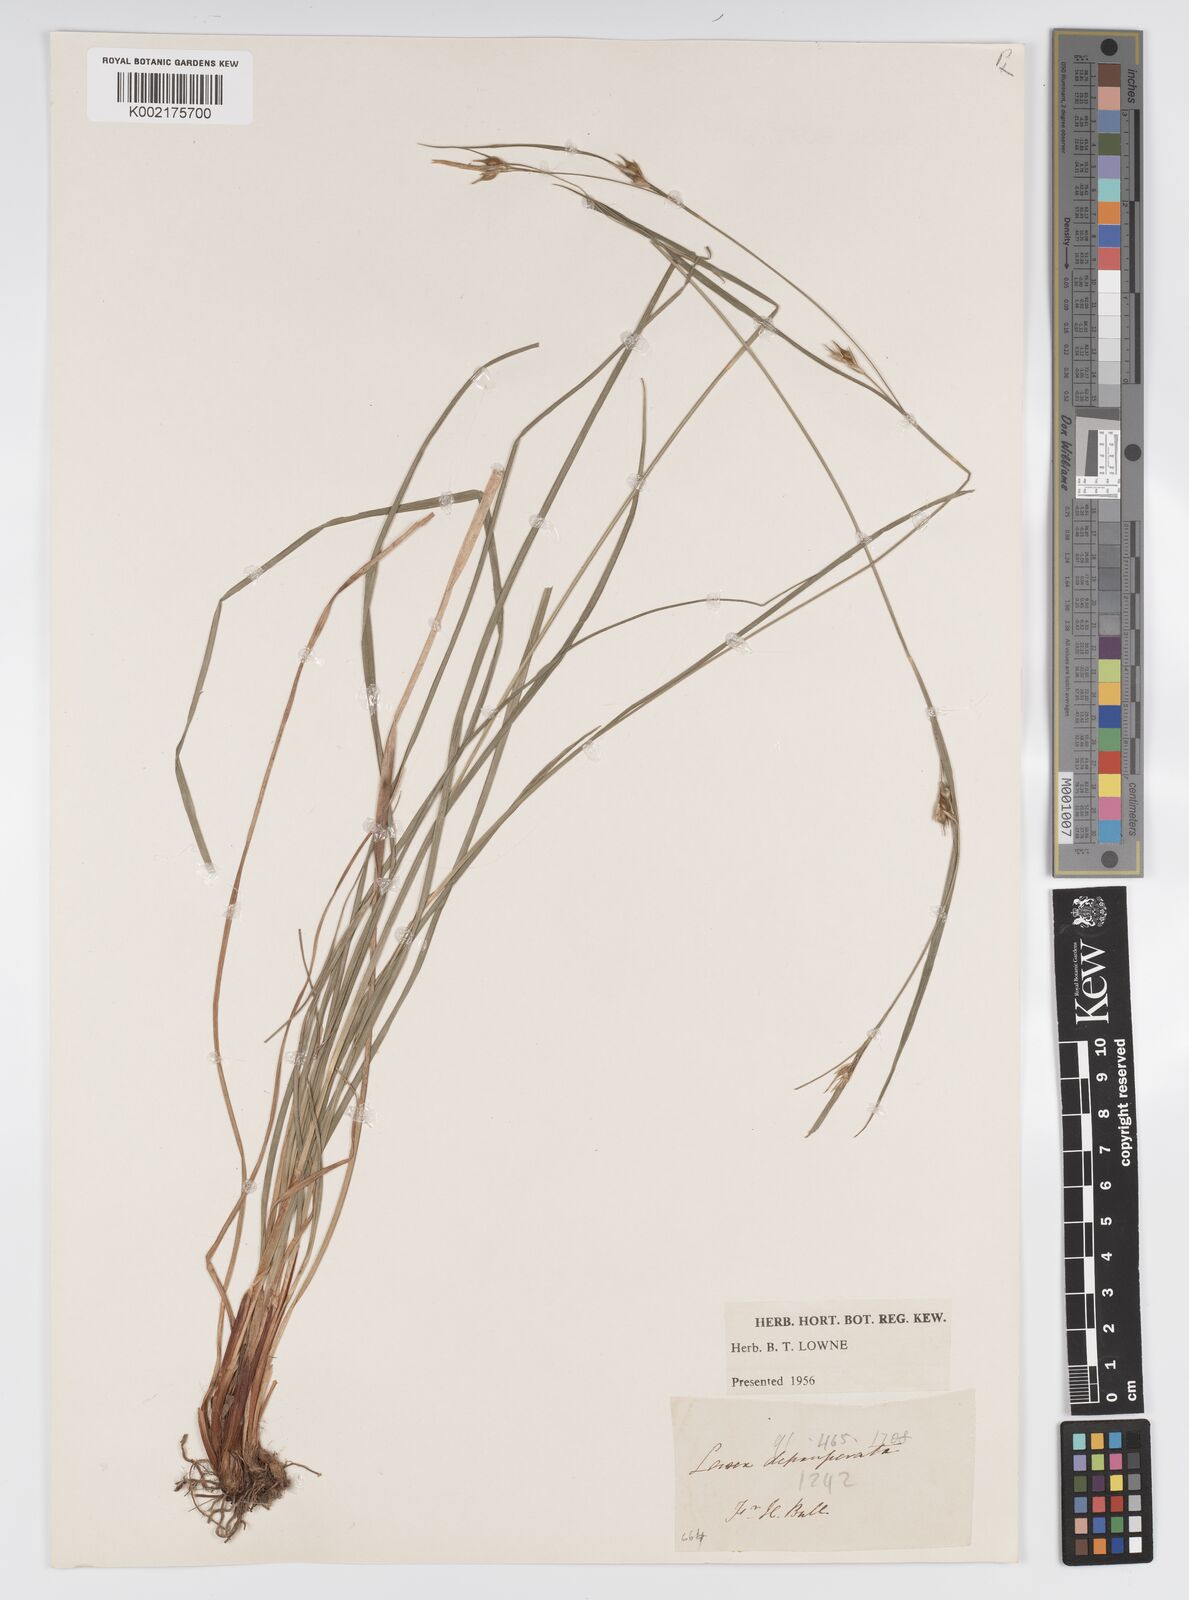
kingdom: Plantae
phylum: Tracheophyta
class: Liliopsida
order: Poales
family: Cyperaceae
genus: Carex
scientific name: Carex depauperata
